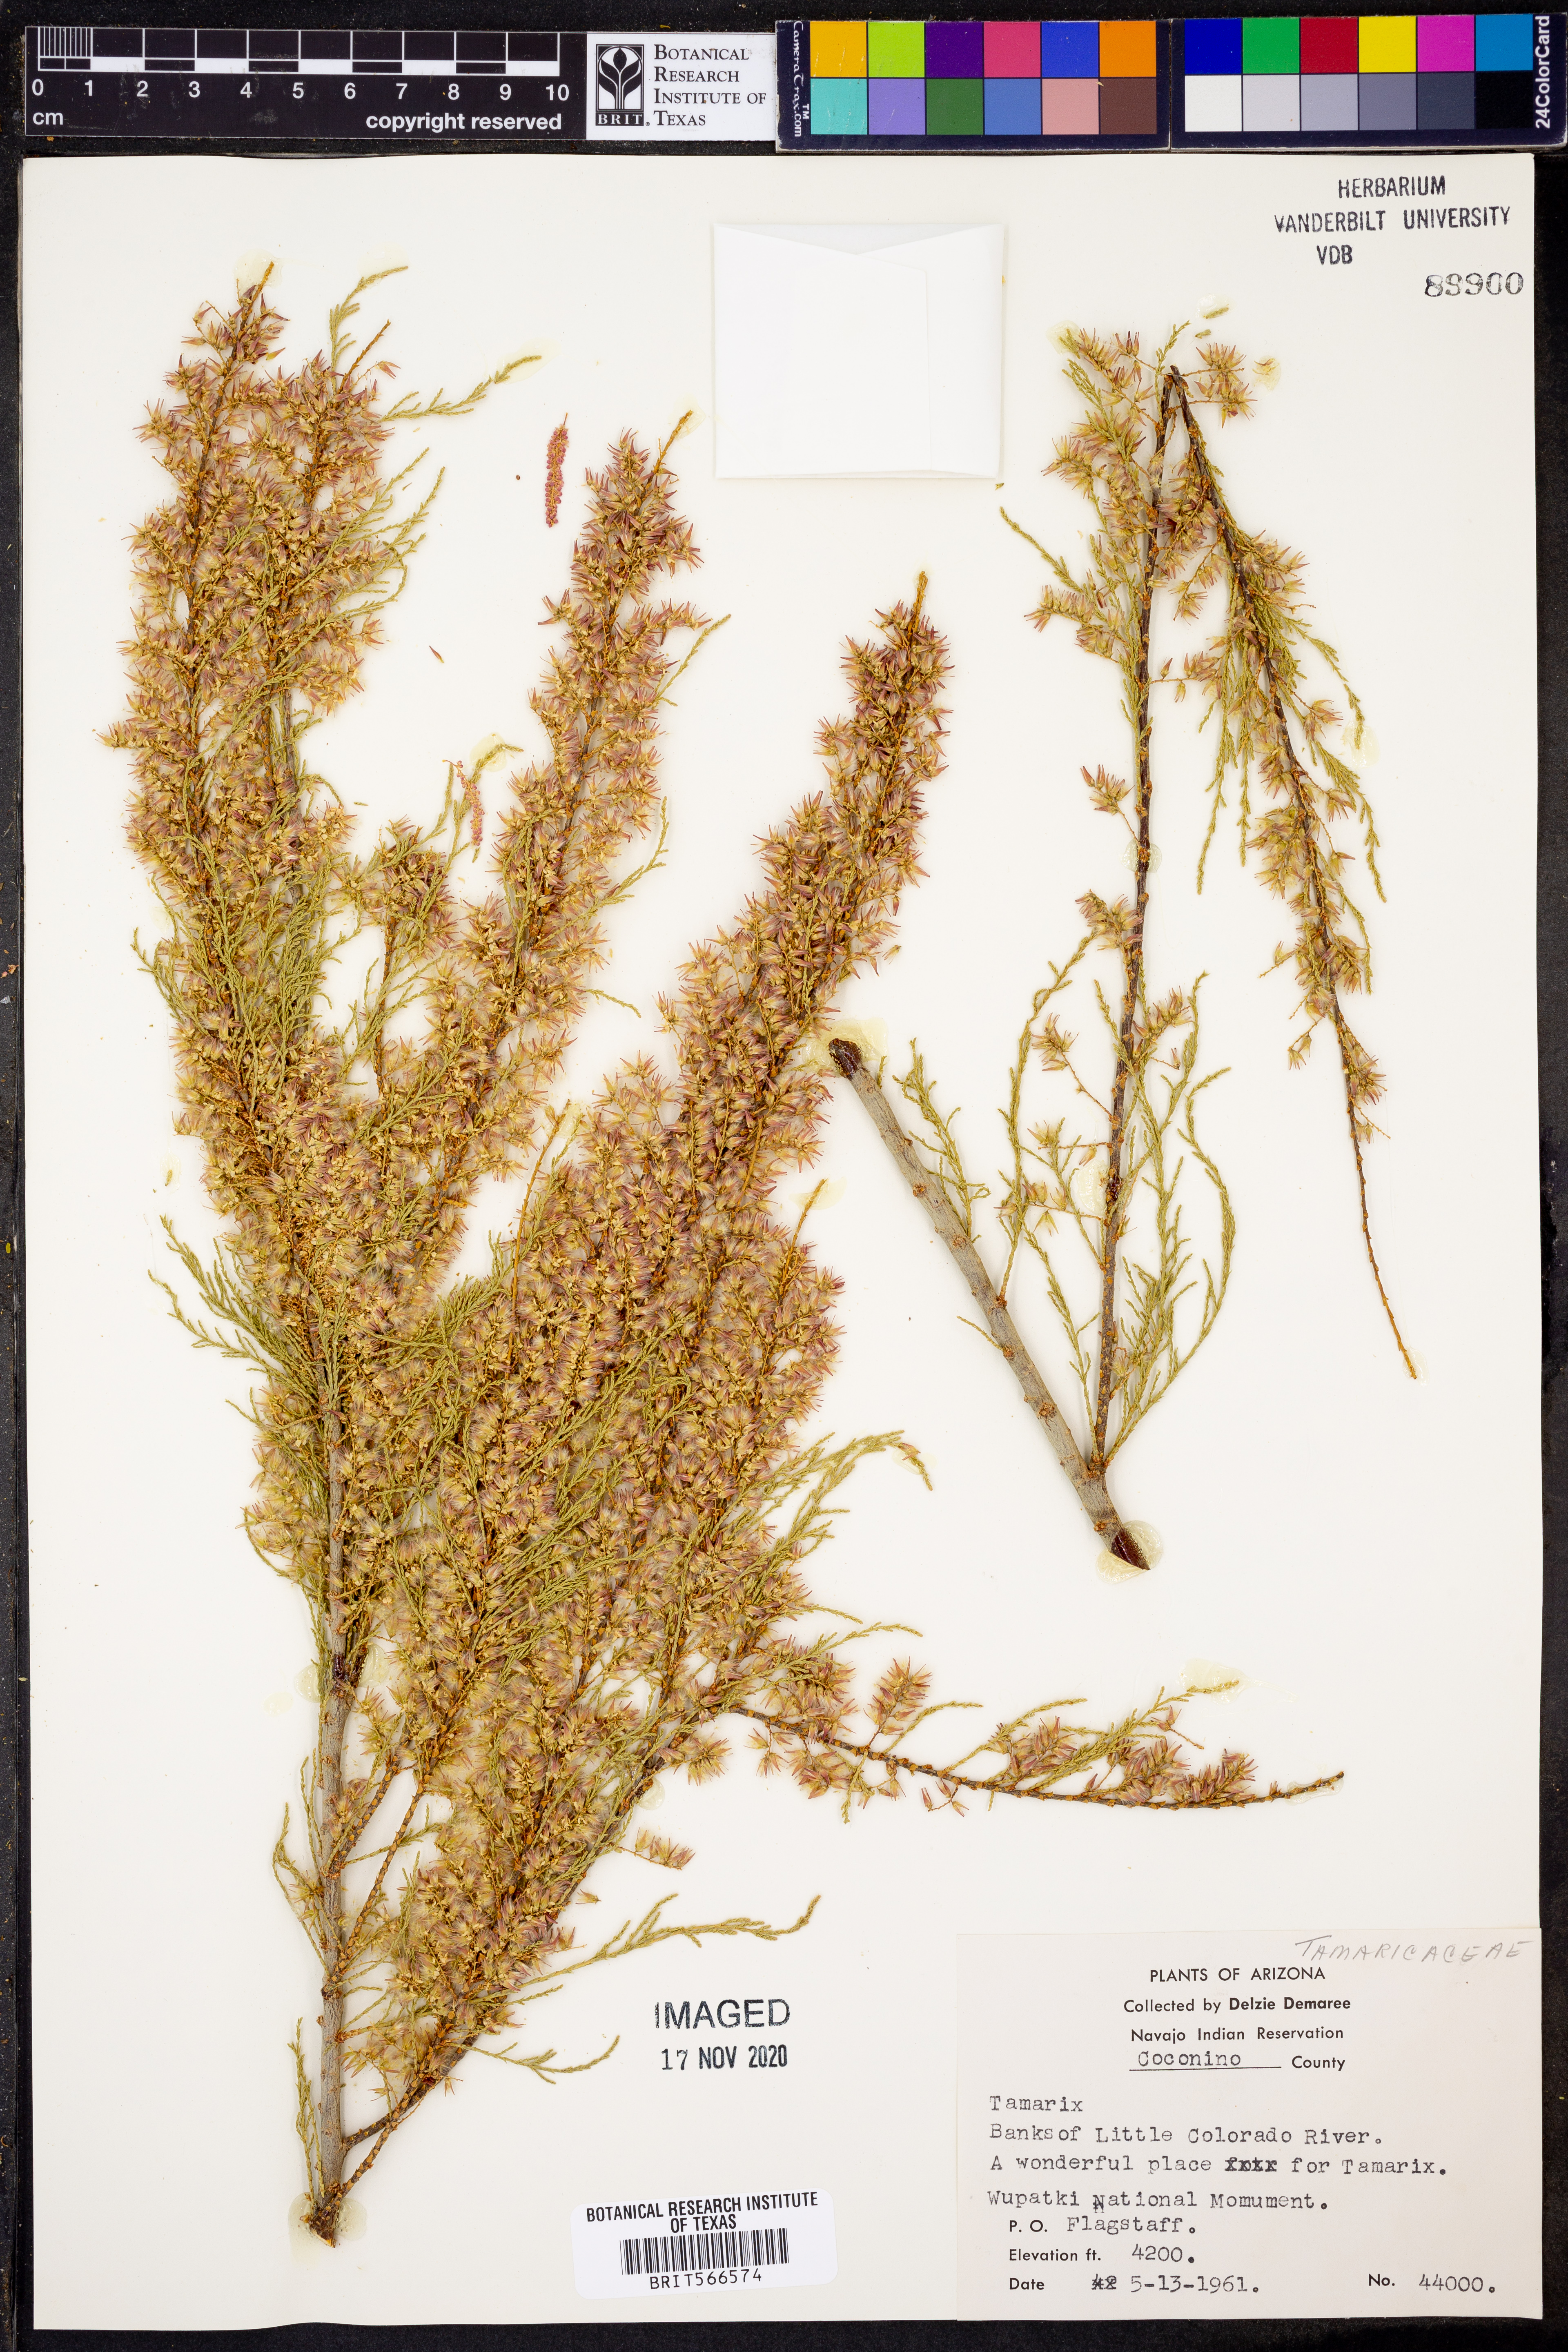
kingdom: Plantae
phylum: Tracheophyta
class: Magnoliopsida
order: Caryophyllales
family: Tamaricaceae
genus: Tamarix
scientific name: Tamarix
